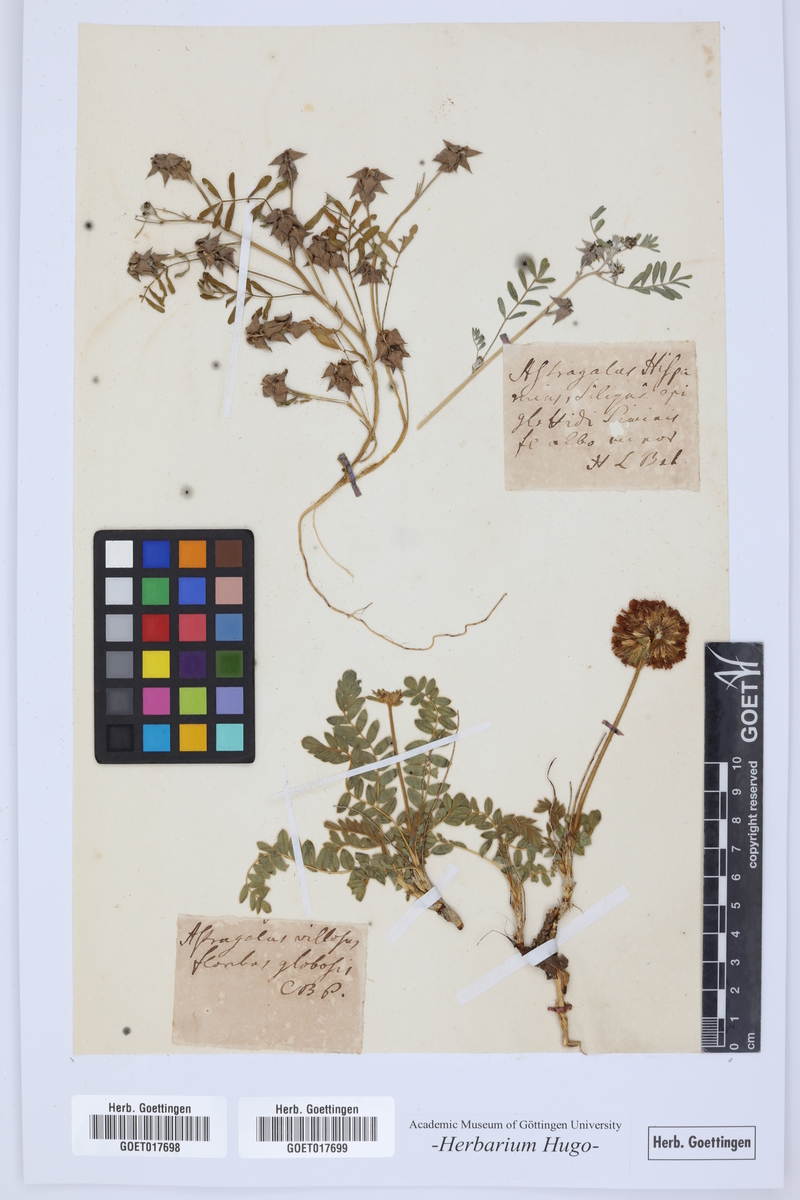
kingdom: Plantae
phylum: Tracheophyta
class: Magnoliopsida
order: Fabales
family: Fabaceae
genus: Anthyllis
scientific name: Anthyllis montana
